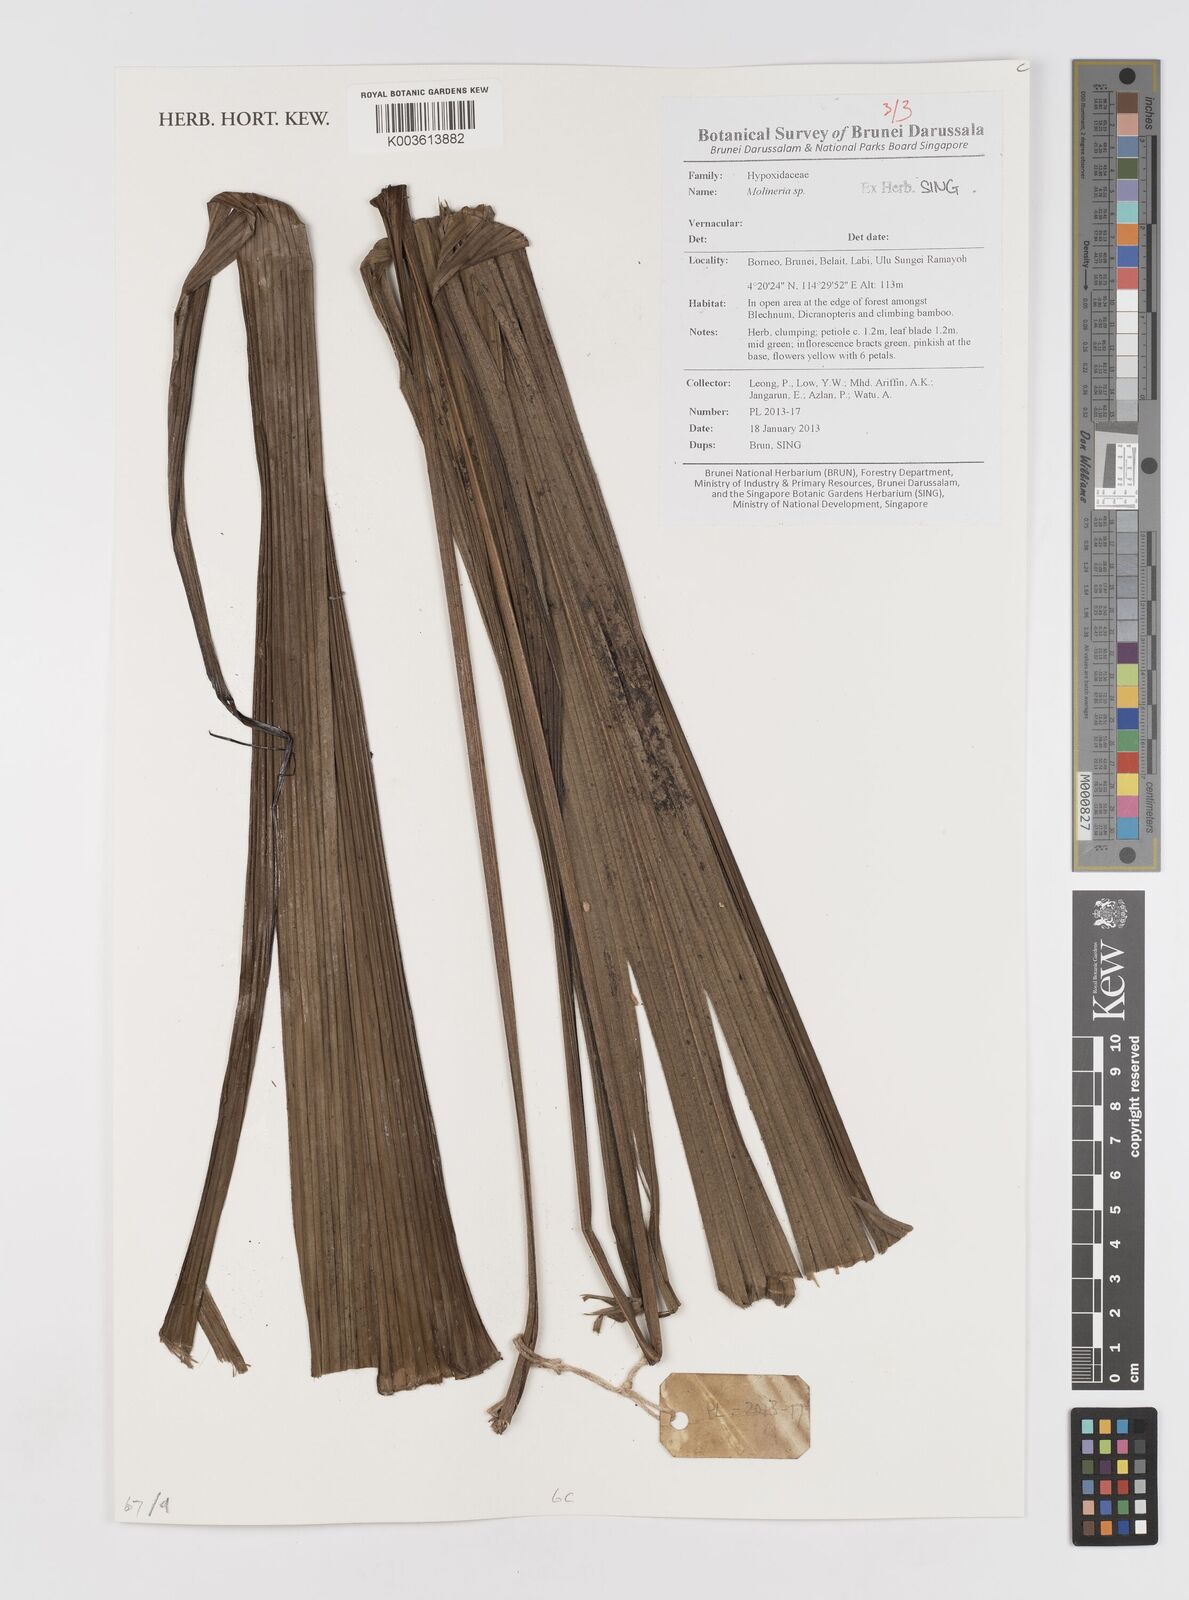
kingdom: Plantae
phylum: Tracheophyta
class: Liliopsida
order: Asparagales
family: Hypoxidaceae
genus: Curculigo
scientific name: Curculigo
